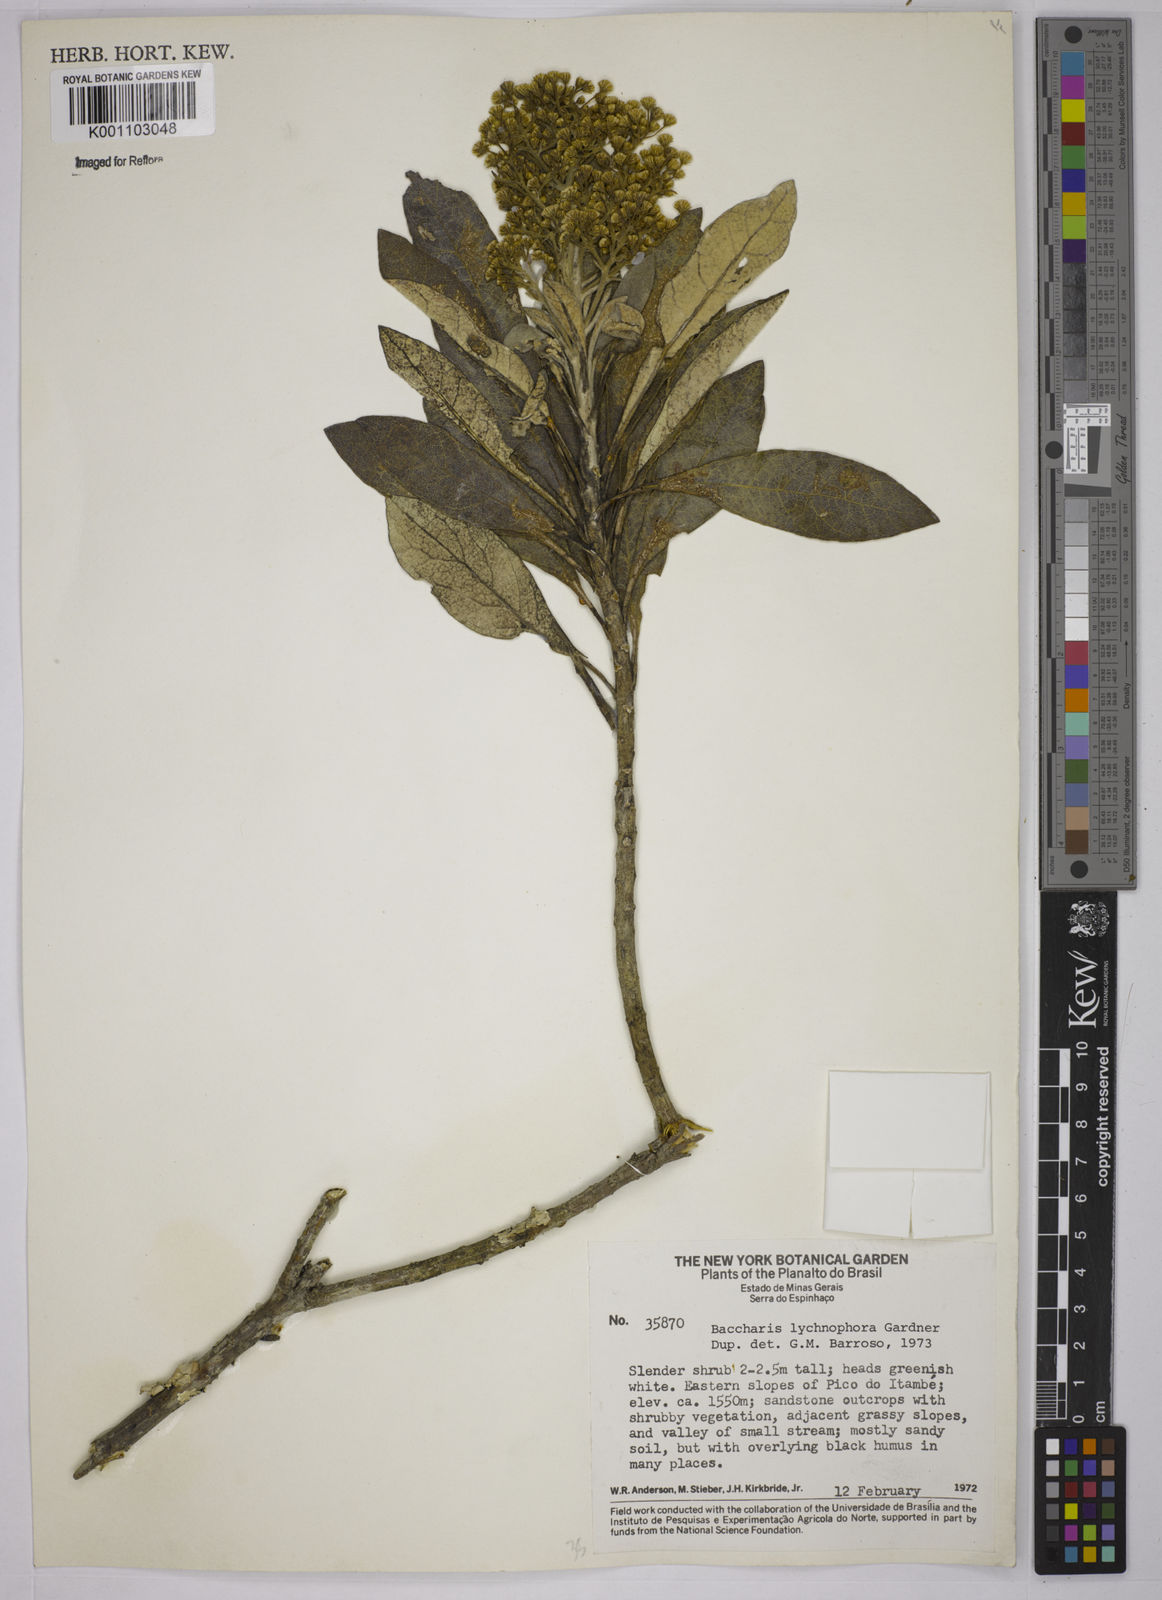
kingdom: Plantae
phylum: Tracheophyta
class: Magnoliopsida
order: Asterales
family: Asteraceae
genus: Baccharis
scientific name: Baccharis lychnophora
